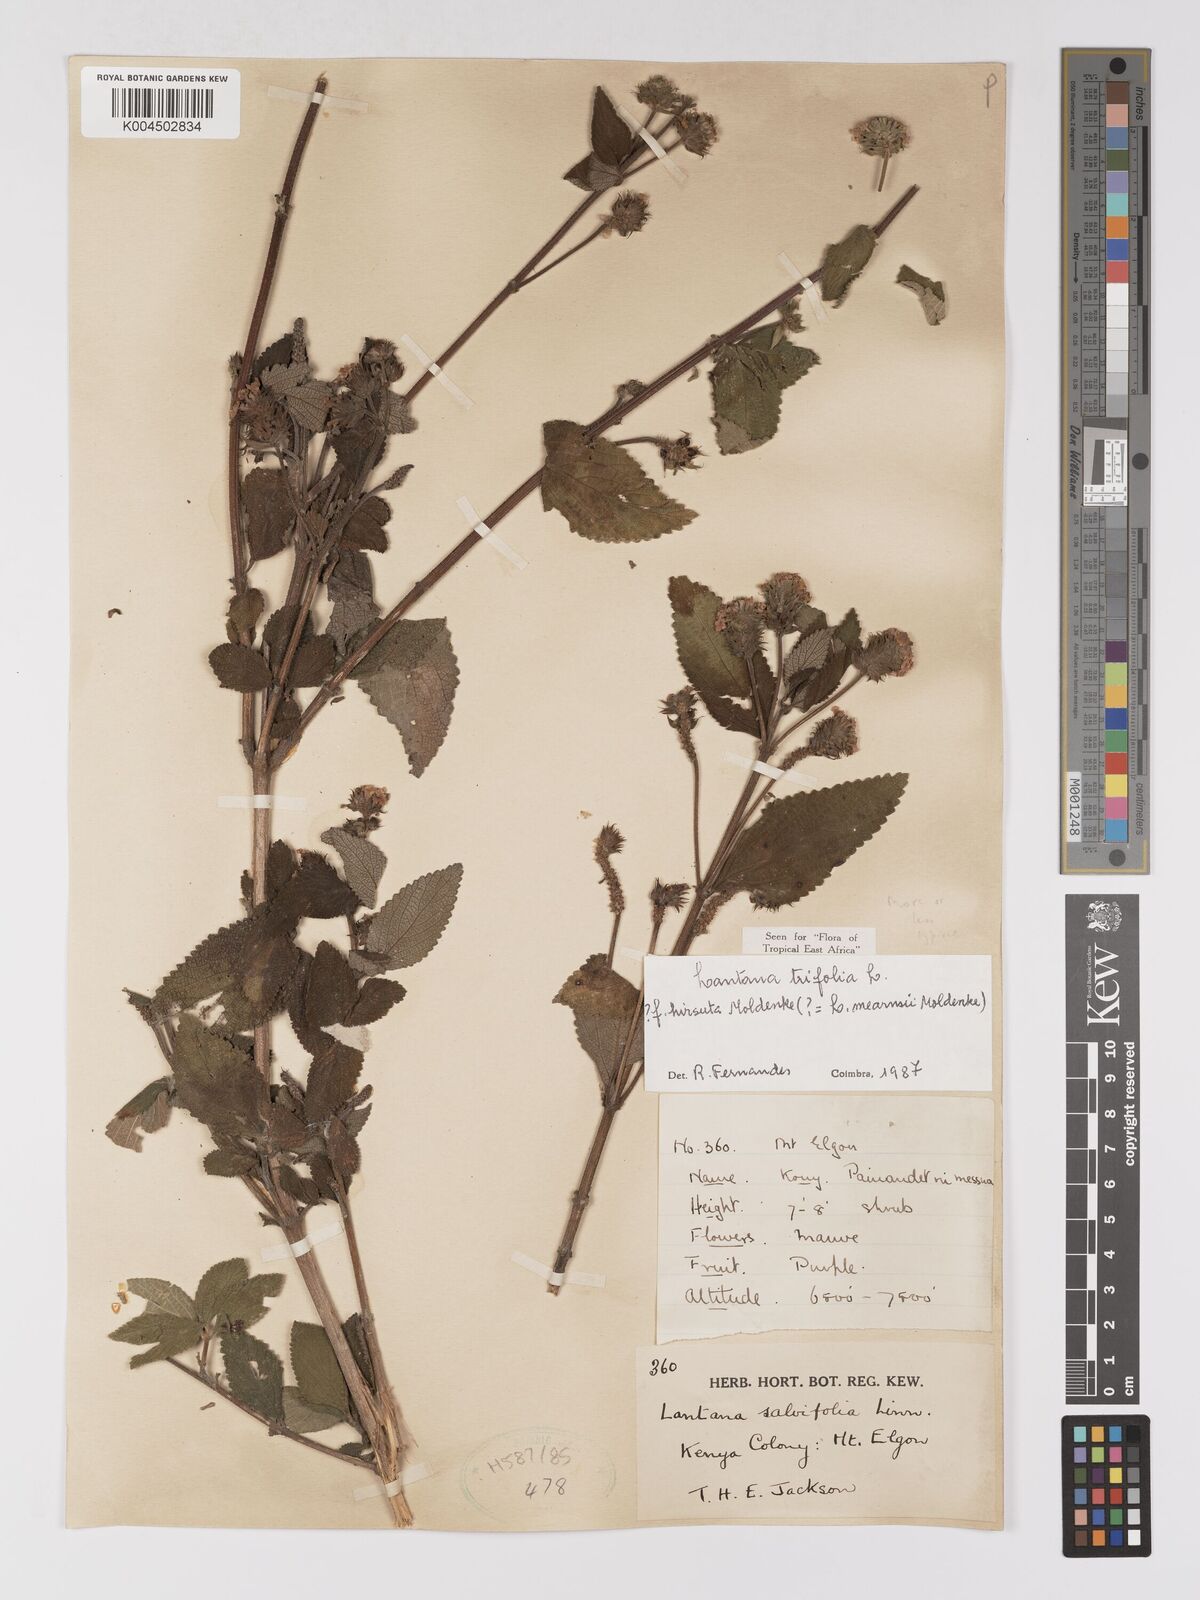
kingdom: Plantae
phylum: Tracheophyta
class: Magnoliopsida
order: Lamiales
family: Verbenaceae
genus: Lantana
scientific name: Lantana trifolia
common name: Sweet-sage
